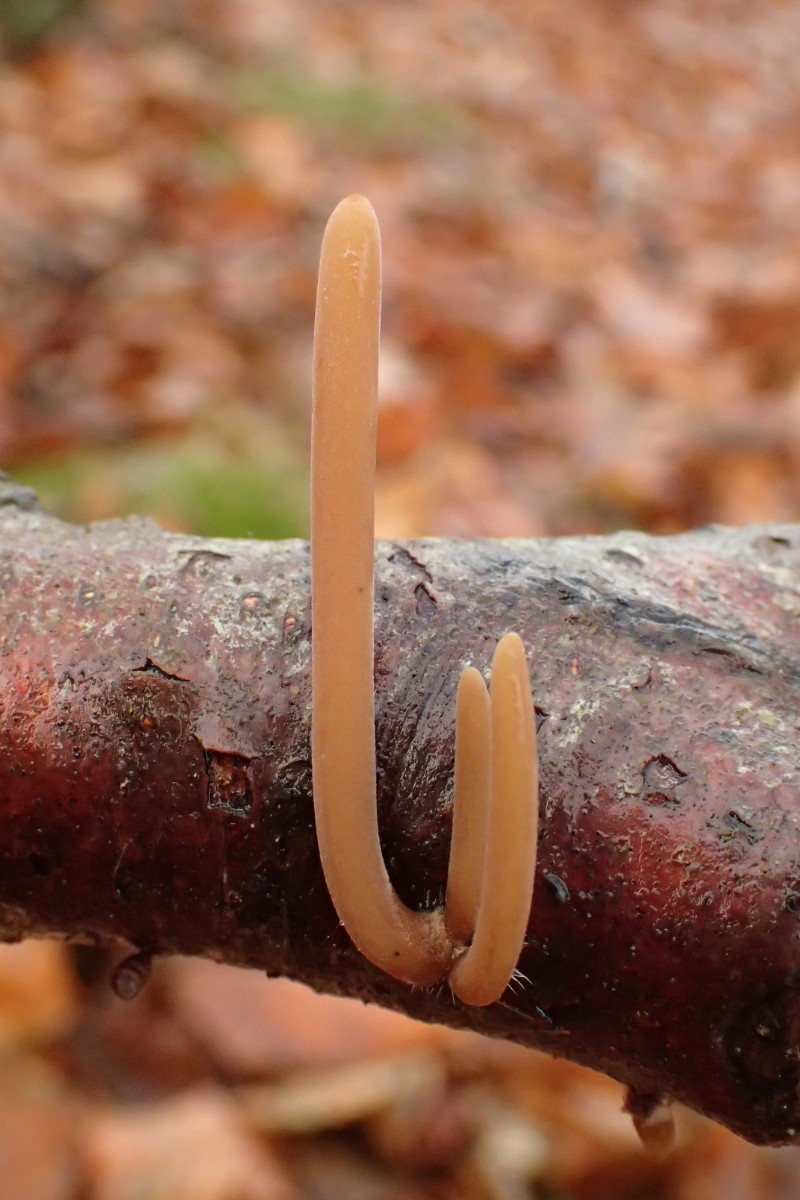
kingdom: Fungi
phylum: Basidiomycota
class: Agaricomycetes
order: Agaricales
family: Typhulaceae
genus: Typhula
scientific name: Typhula fistulosa
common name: pibet rørkølle
